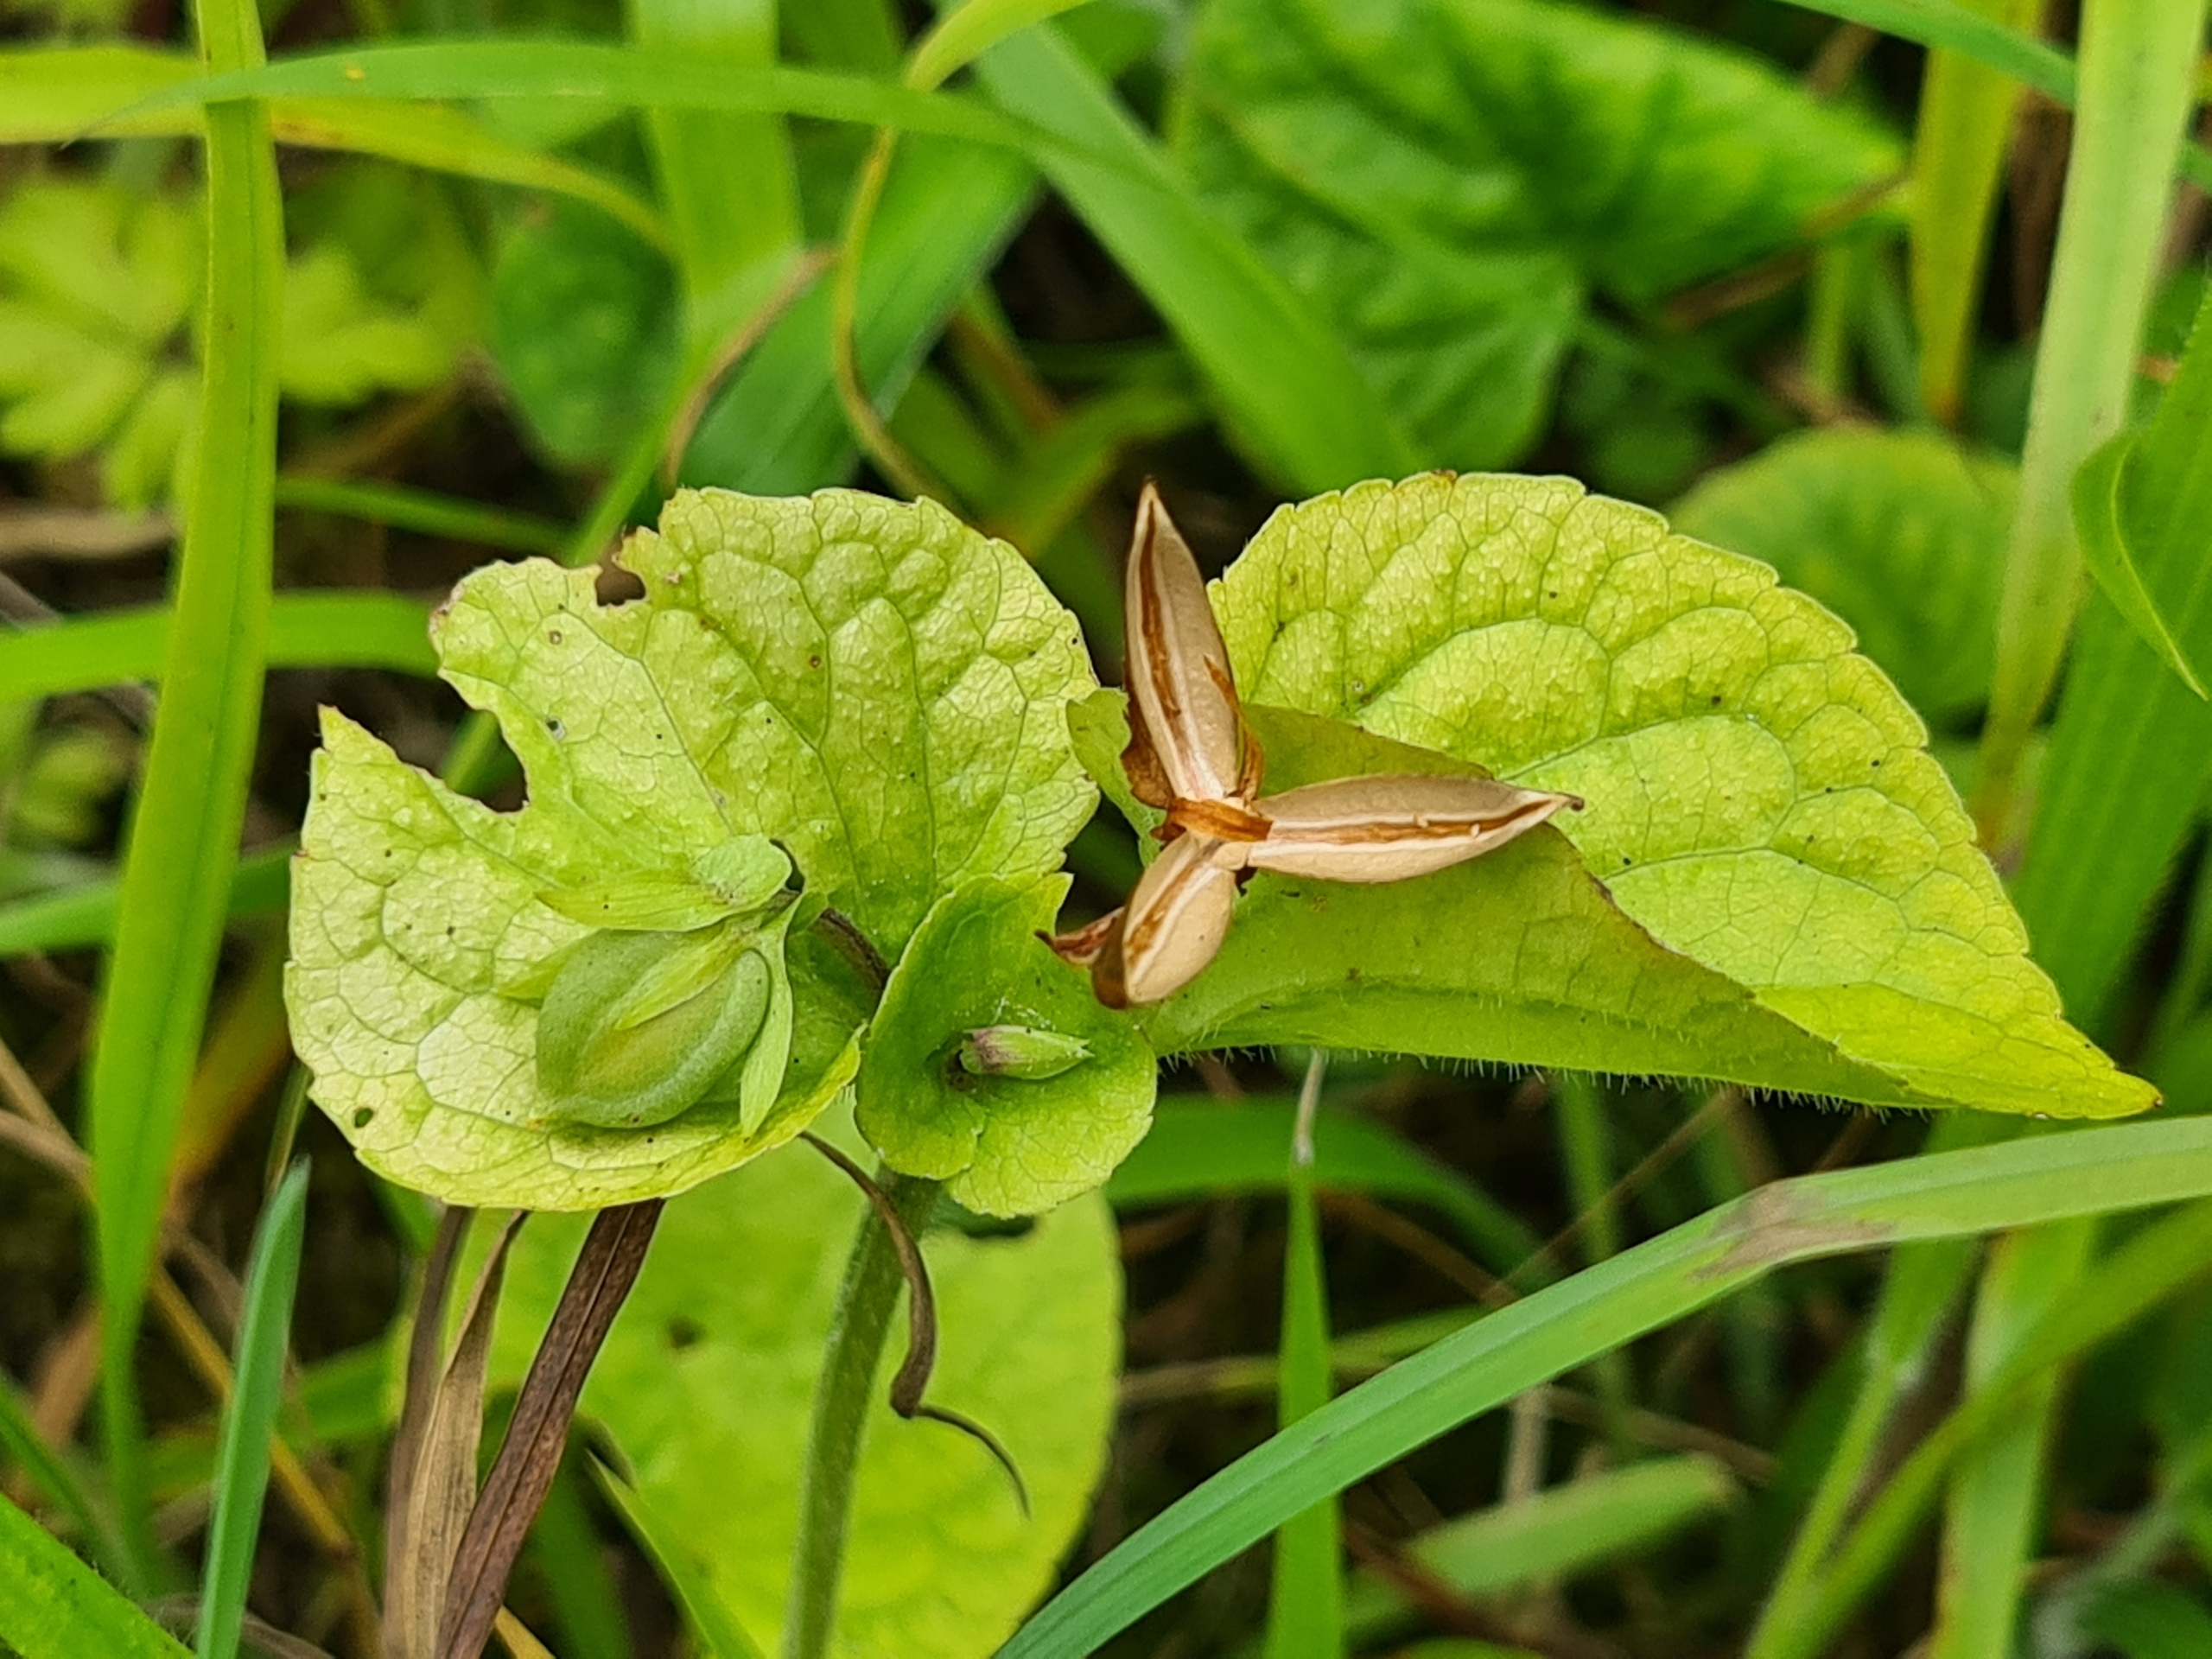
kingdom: Plantae
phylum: Tracheophyta
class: Magnoliopsida
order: Malpighiales
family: Violaceae
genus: Viola
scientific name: Viola mirabilis
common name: Forskelligblomstret viol
